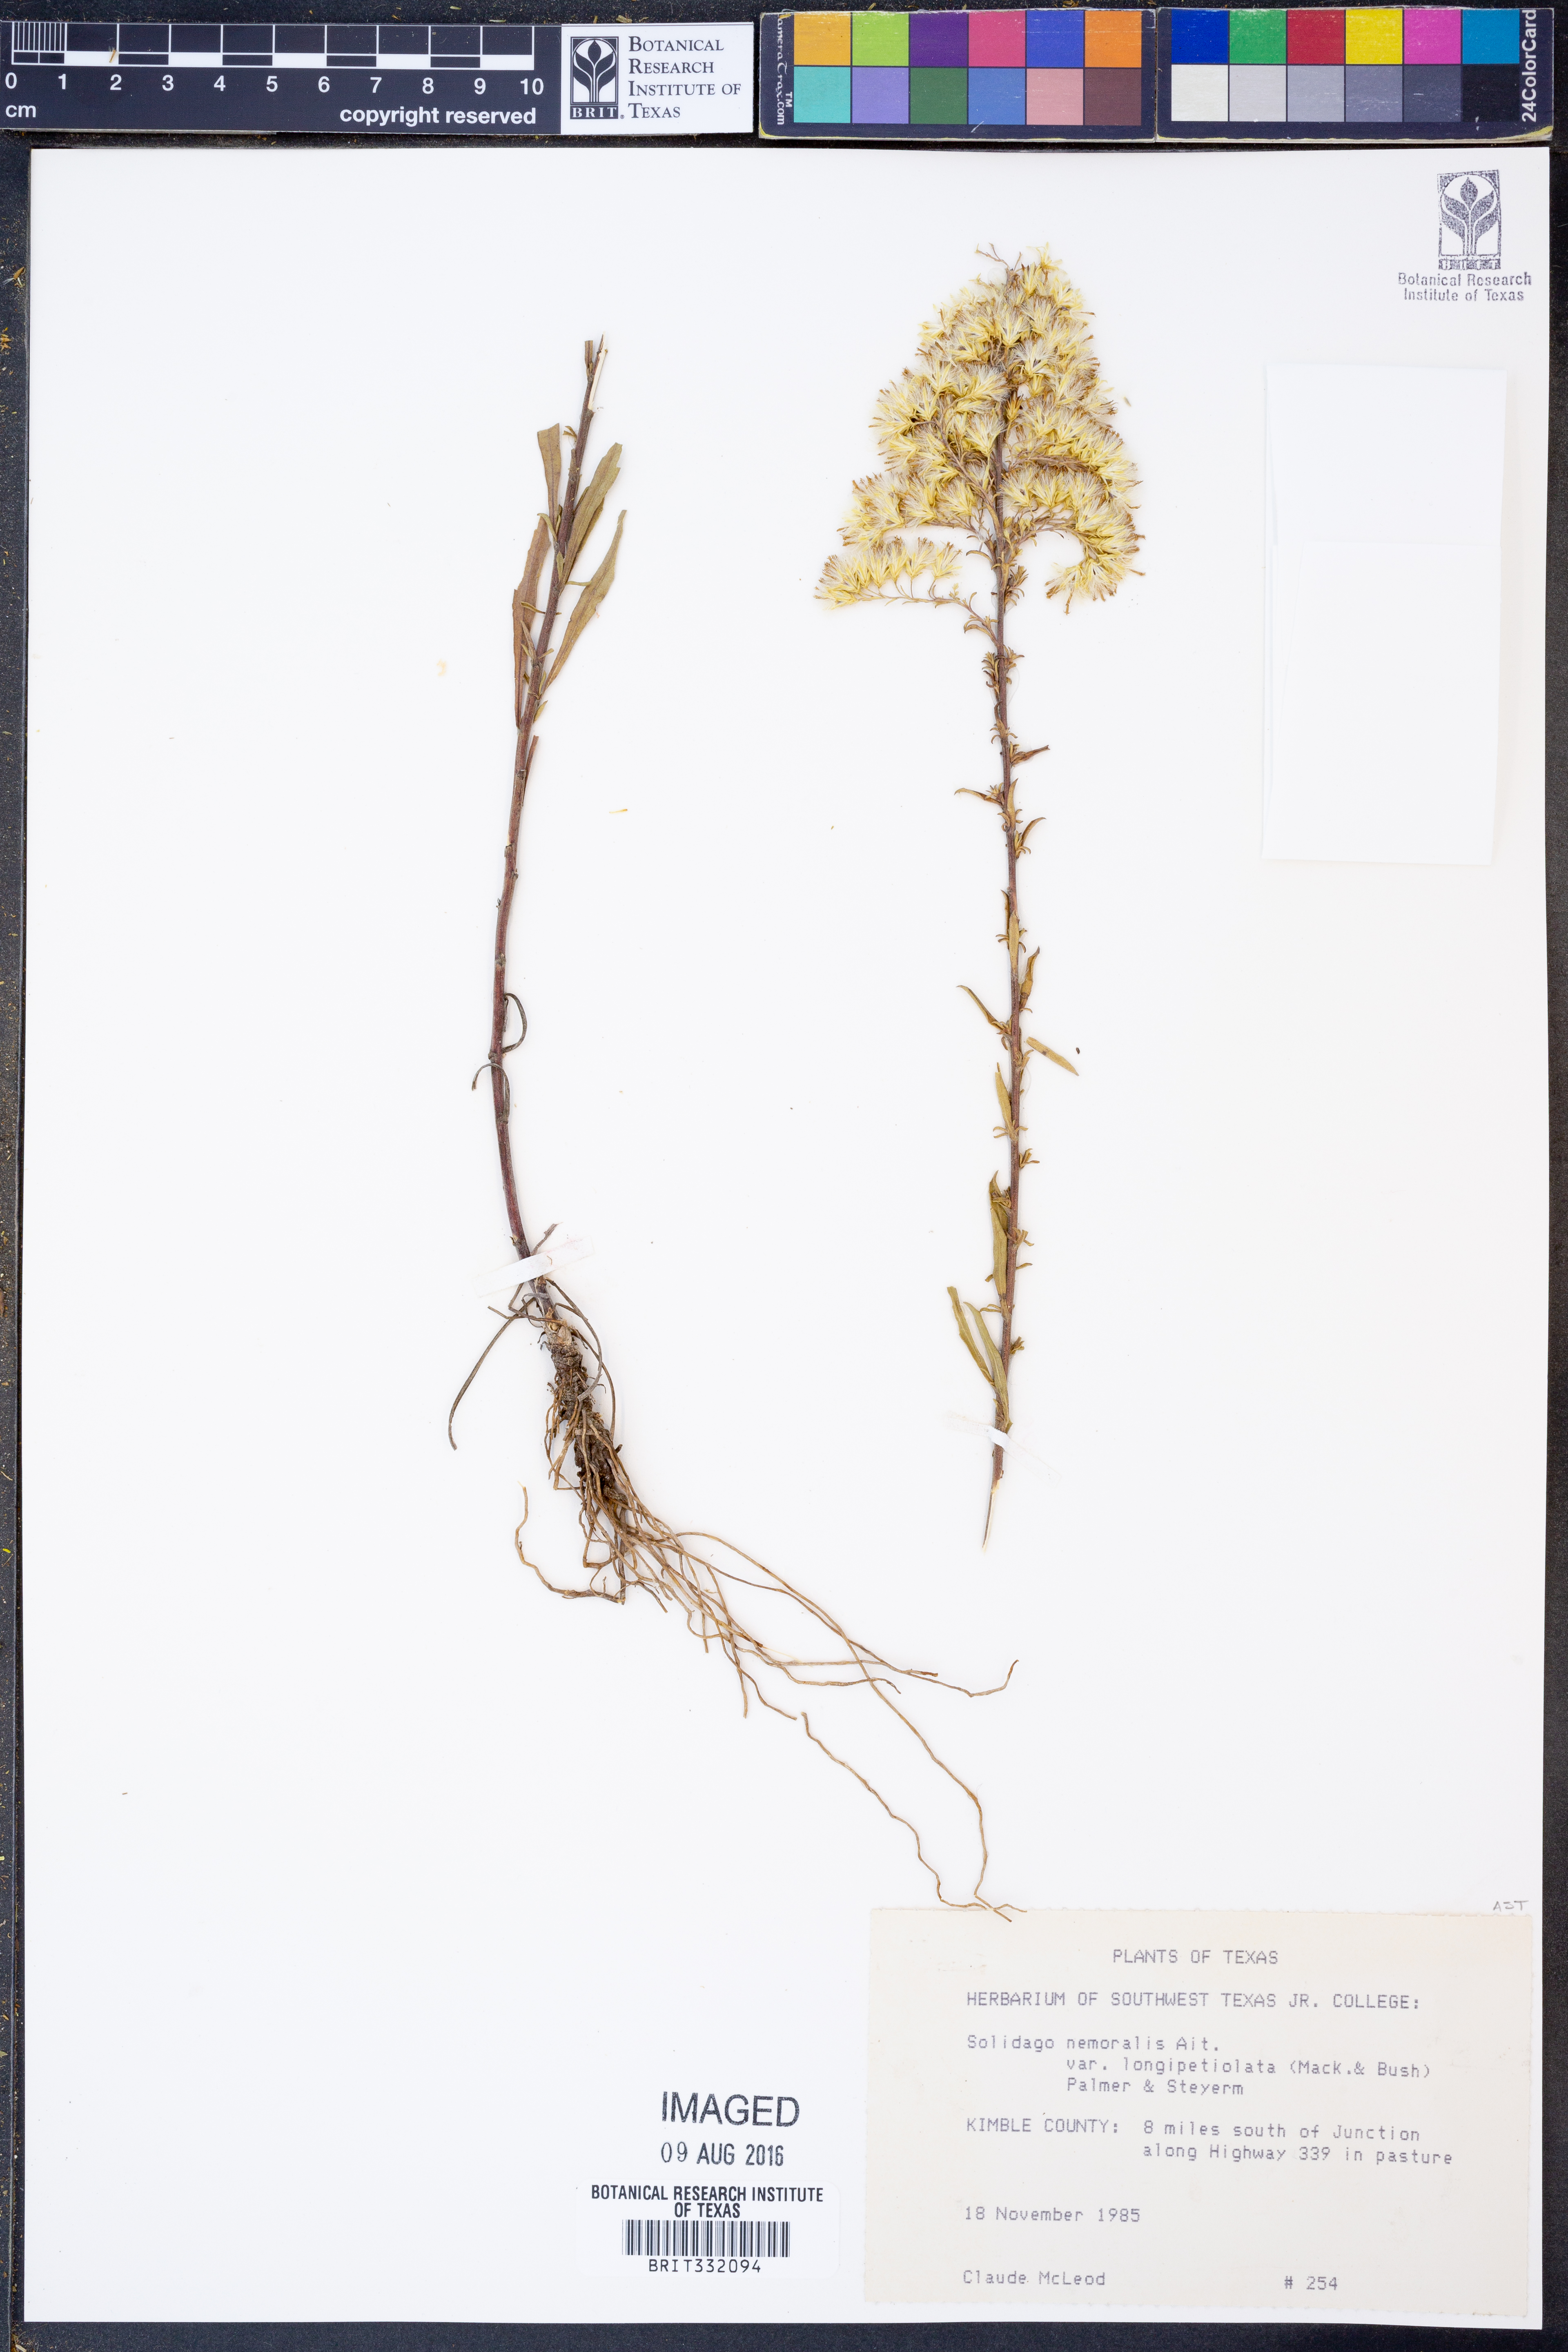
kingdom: Plantae
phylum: Tracheophyta
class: Magnoliopsida
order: Asterales
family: Asteraceae
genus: Solidago
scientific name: Solidago decemflora
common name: Prairie grey-stemmed goldenrod
